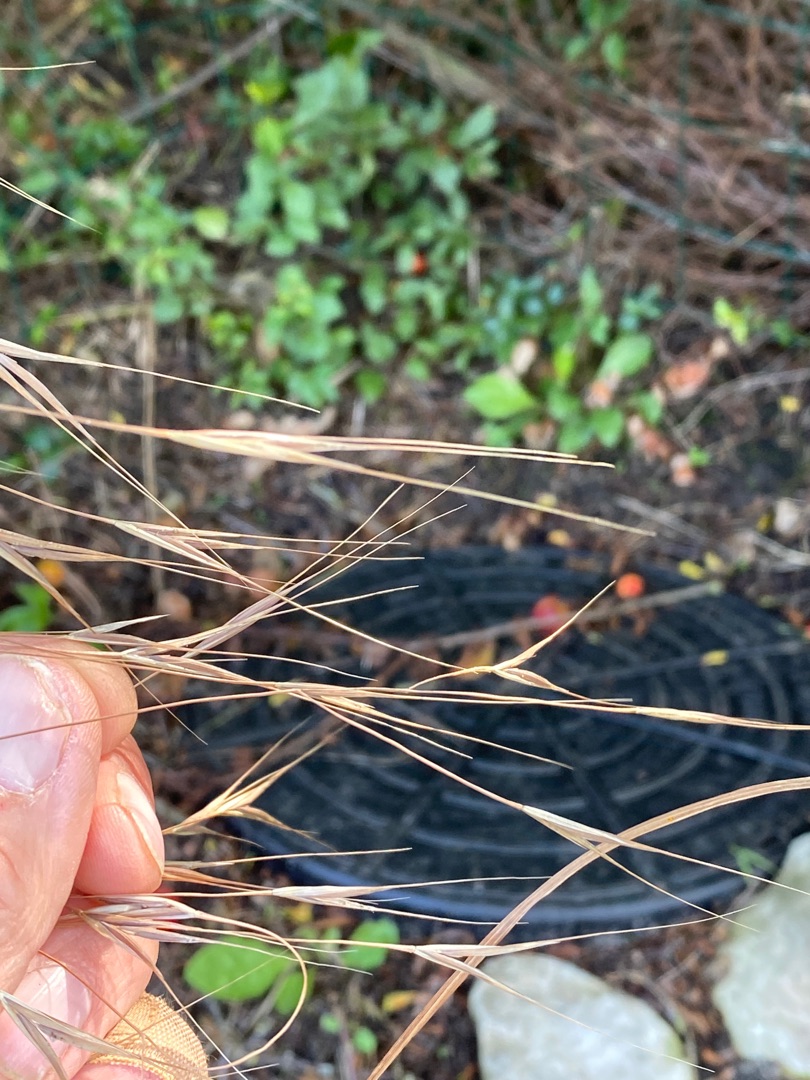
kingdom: Plantae
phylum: Tracheophyta
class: Liliopsida
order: Poales
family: Poaceae
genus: Bromus
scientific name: Bromus sterilis
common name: Gold hejre
